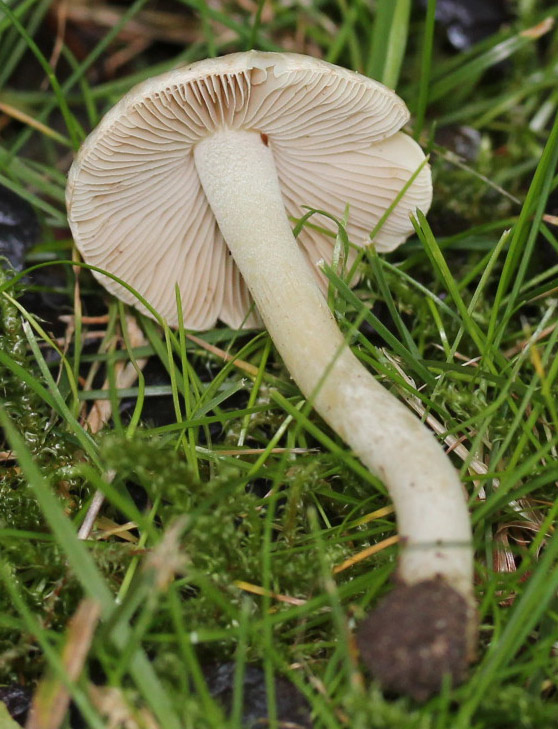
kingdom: Fungi
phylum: Basidiomycota
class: Agaricomycetes
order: Agaricales
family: Inocybaceae
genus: Inocybe
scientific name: Inocybe
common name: almindelig trævlhat
